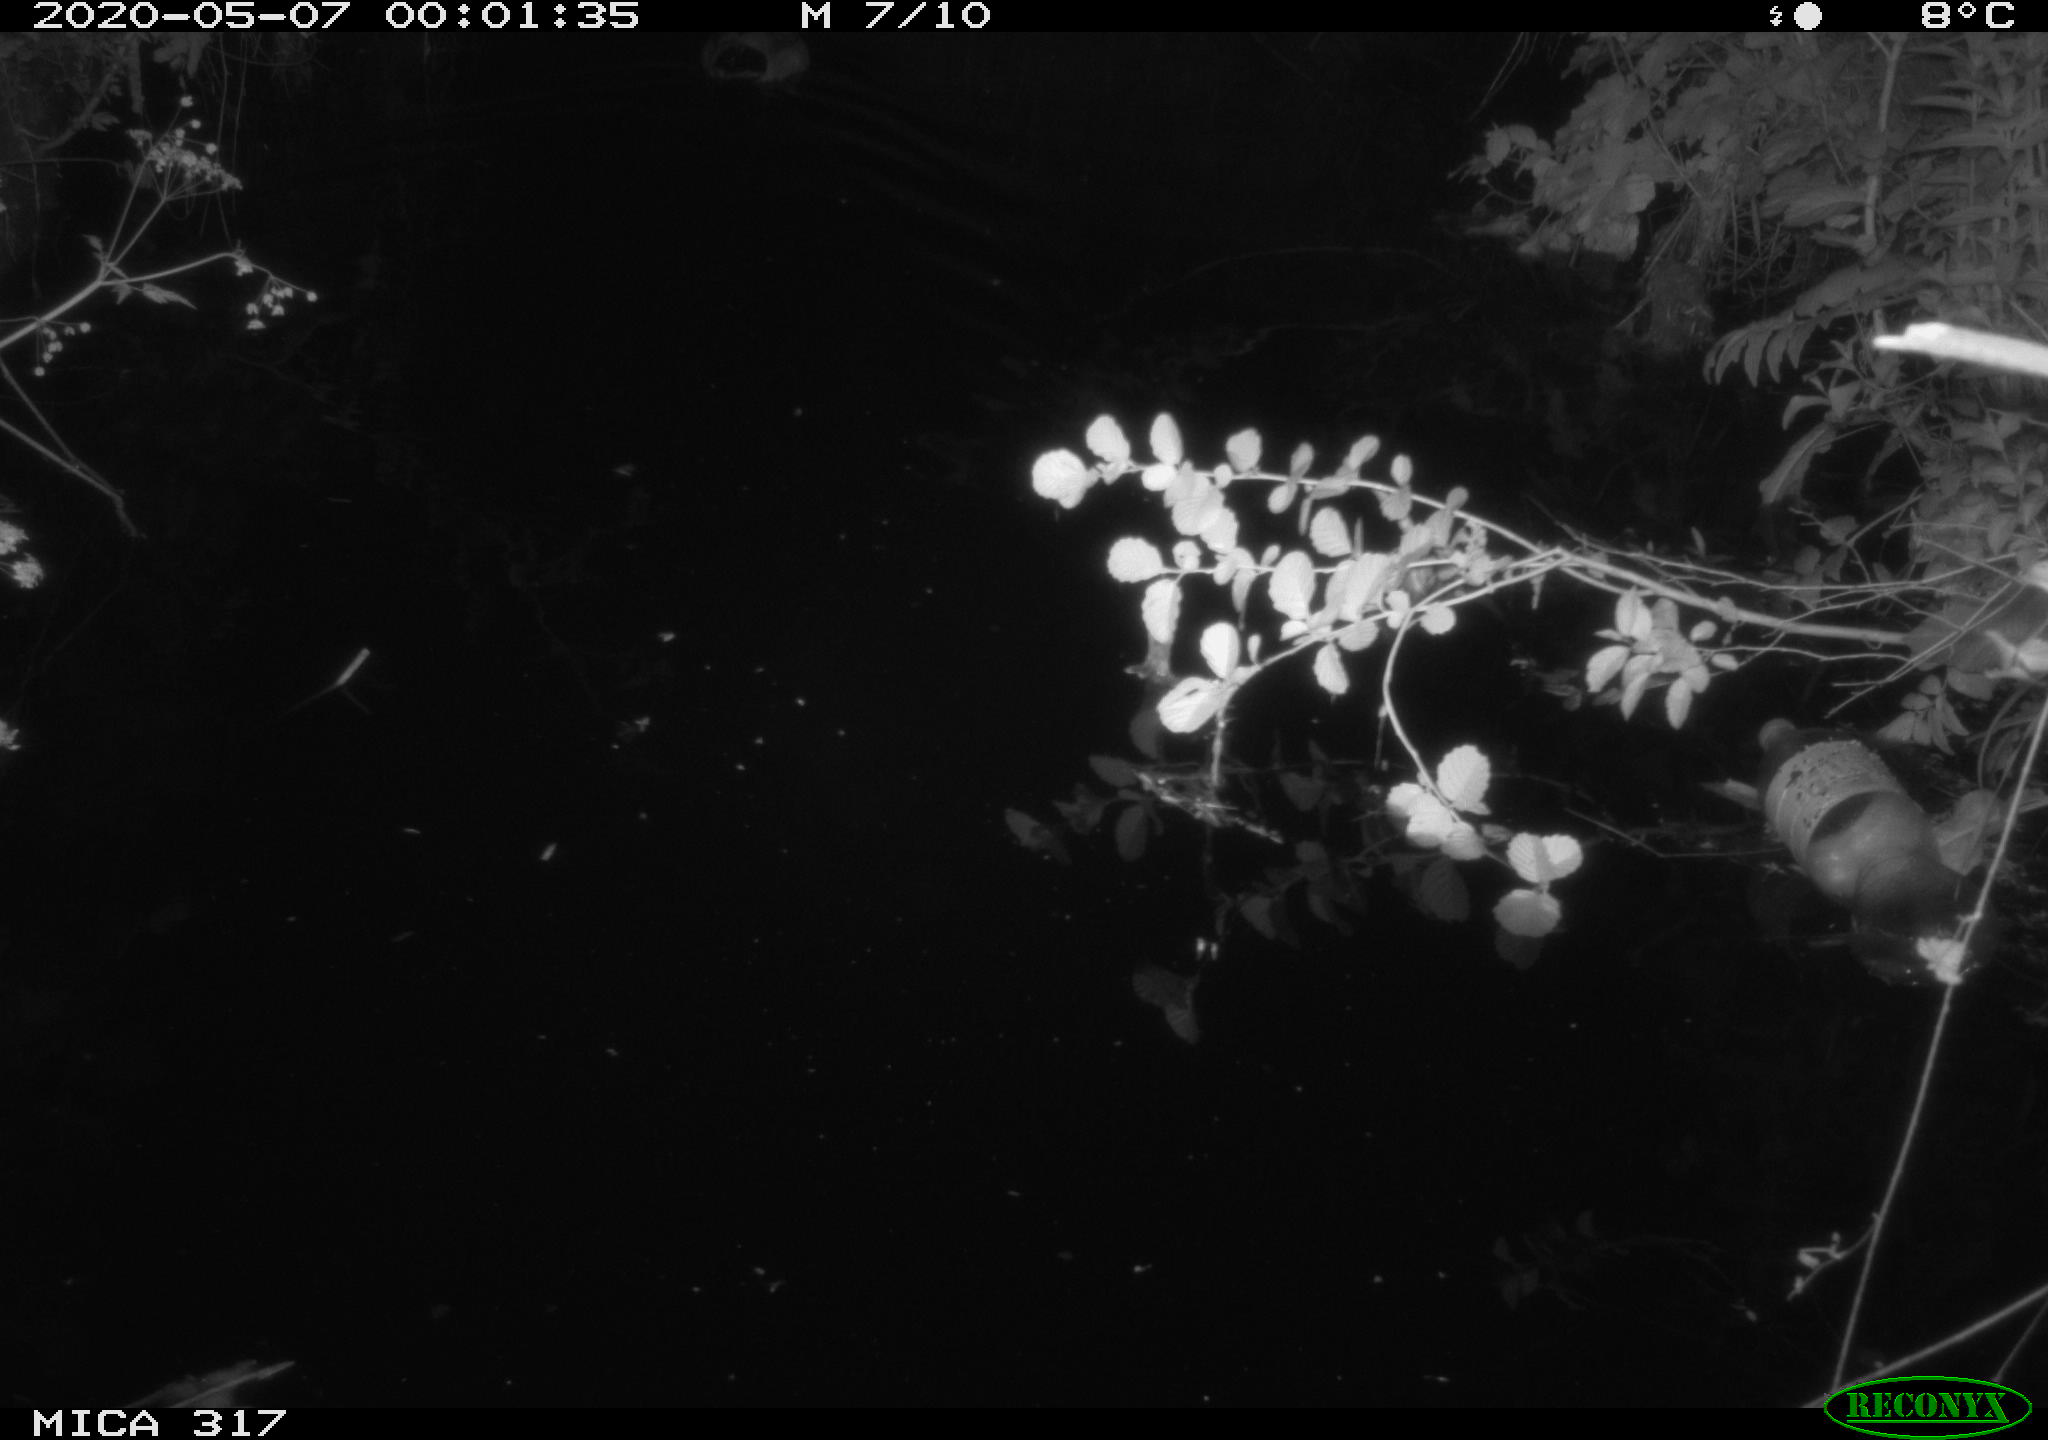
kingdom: Animalia
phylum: Chordata
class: Aves
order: Anseriformes
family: Anatidae
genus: Anas
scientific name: Anas platyrhynchos
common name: Mallard
